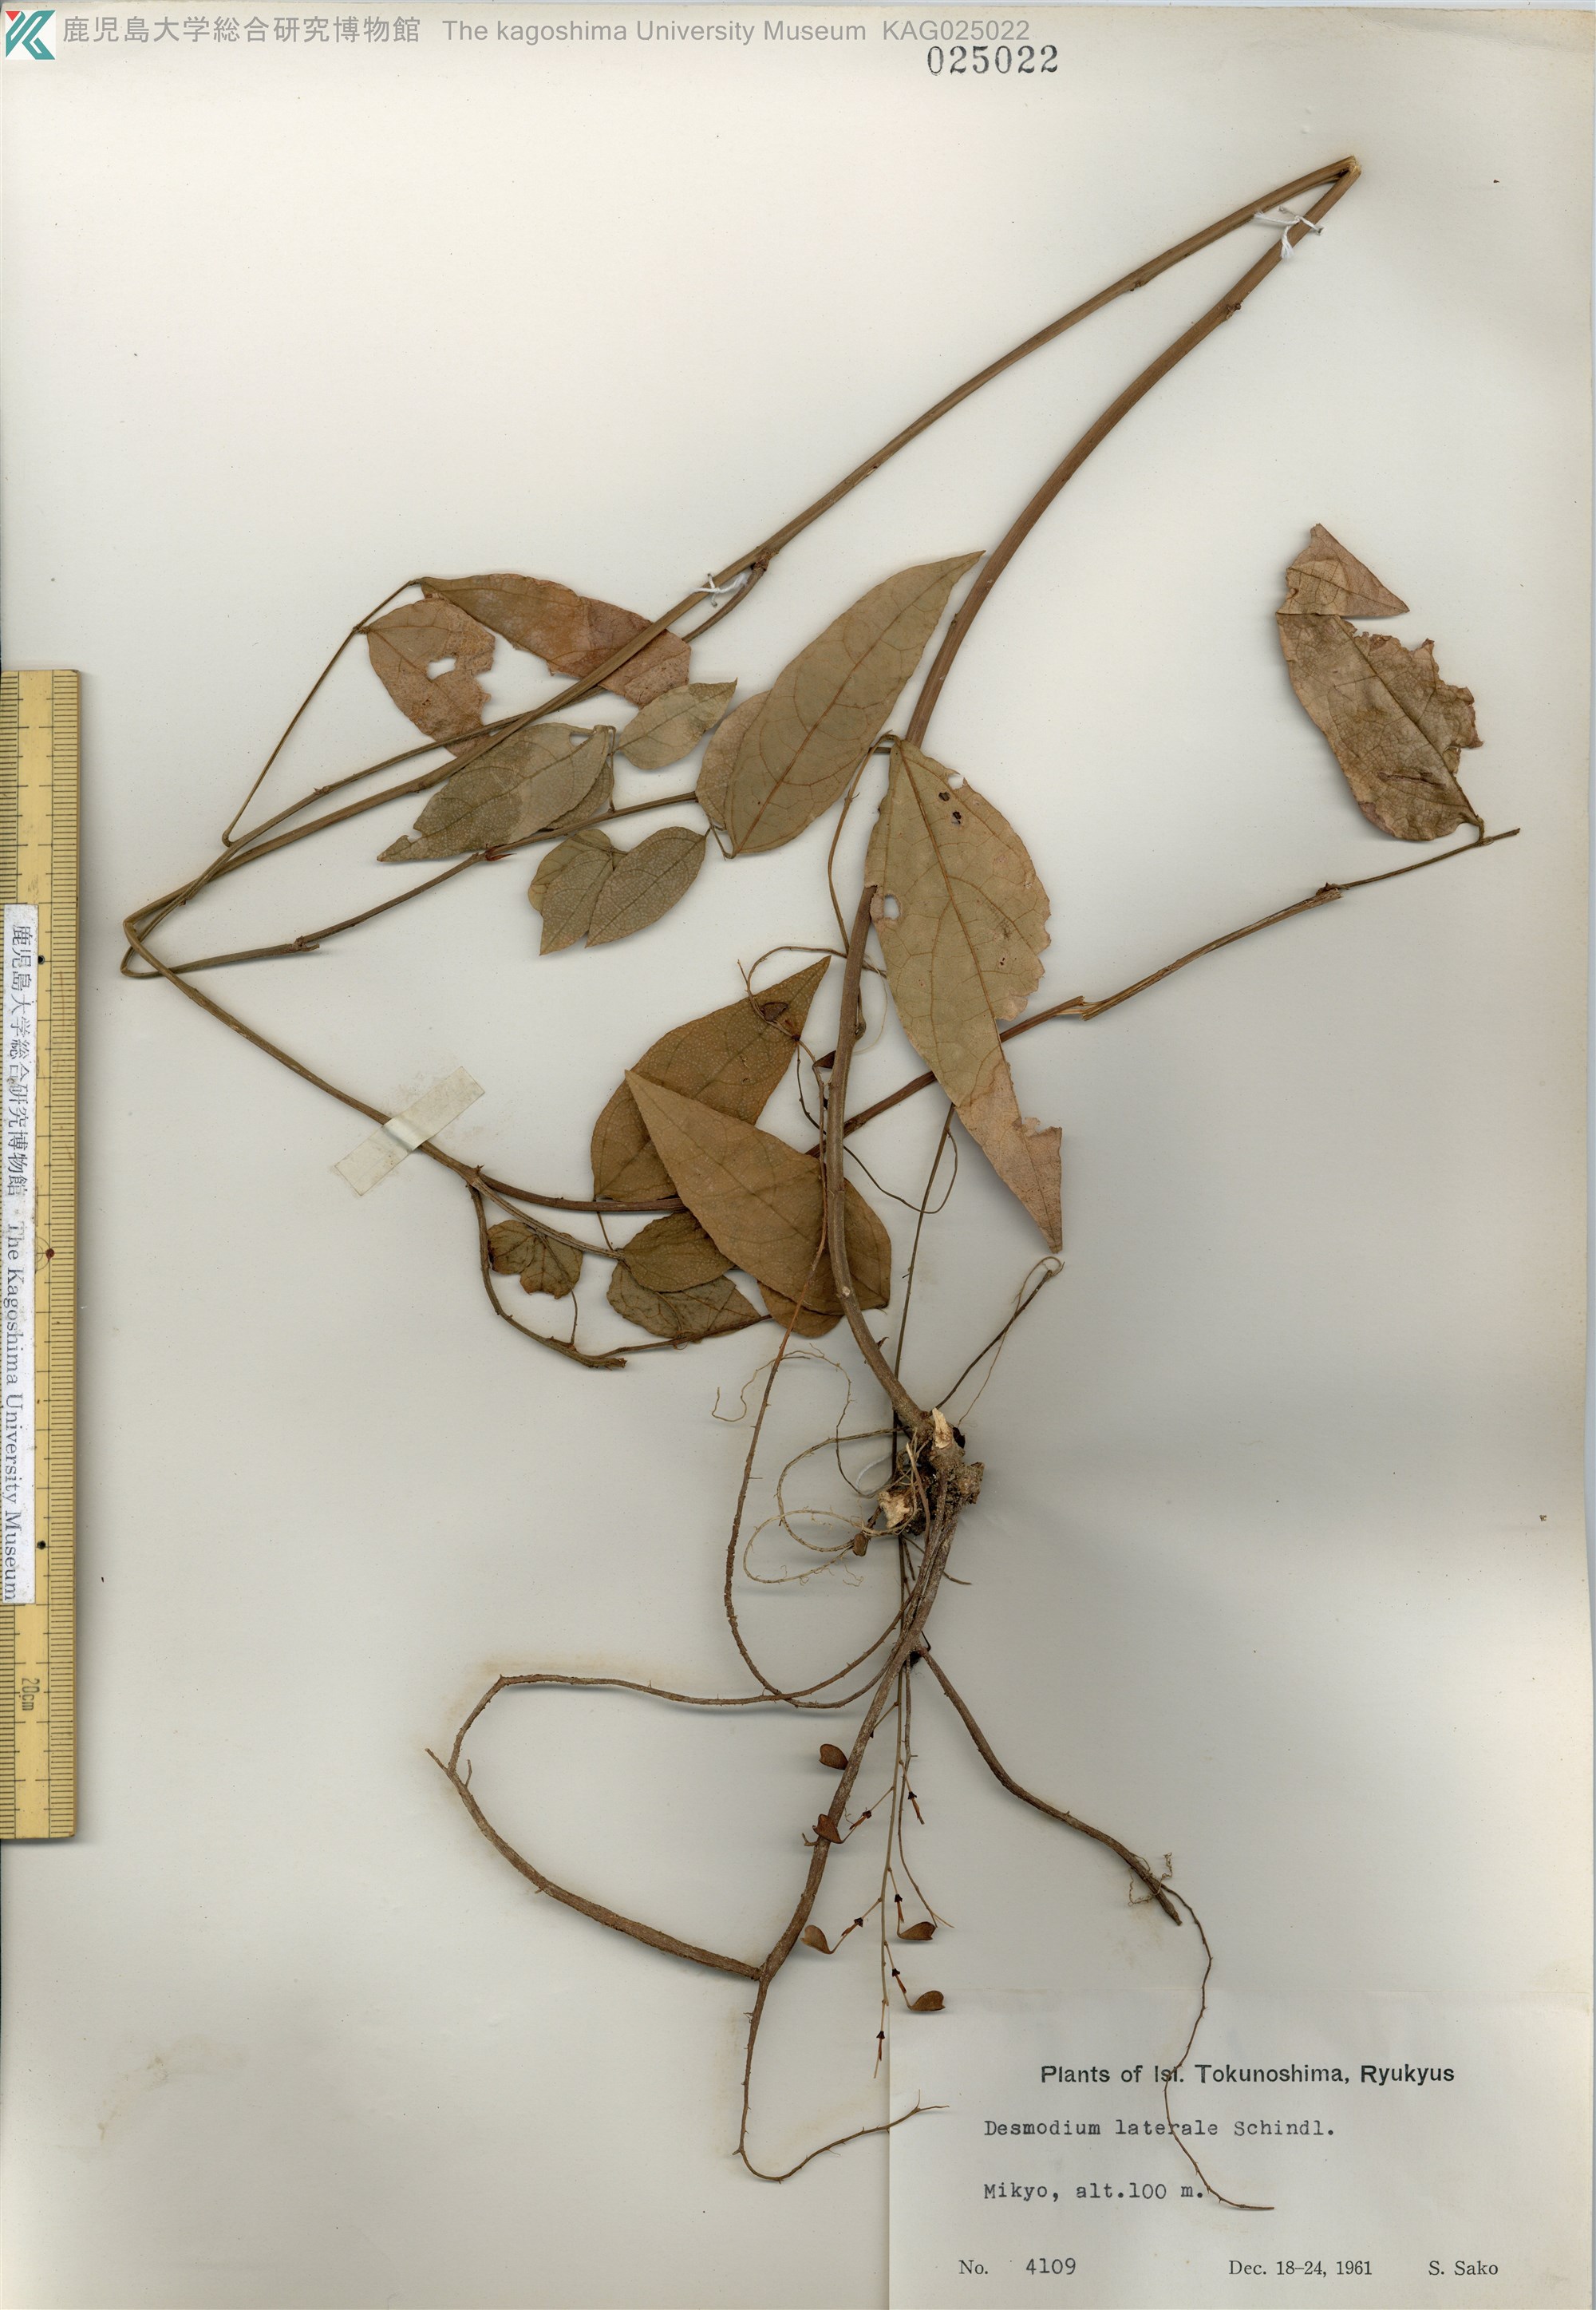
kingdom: Plantae
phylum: Tracheophyta
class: Magnoliopsida
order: Fabales
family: Fabaceae
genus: Hylodesmum
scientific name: Hylodesmum laterale
